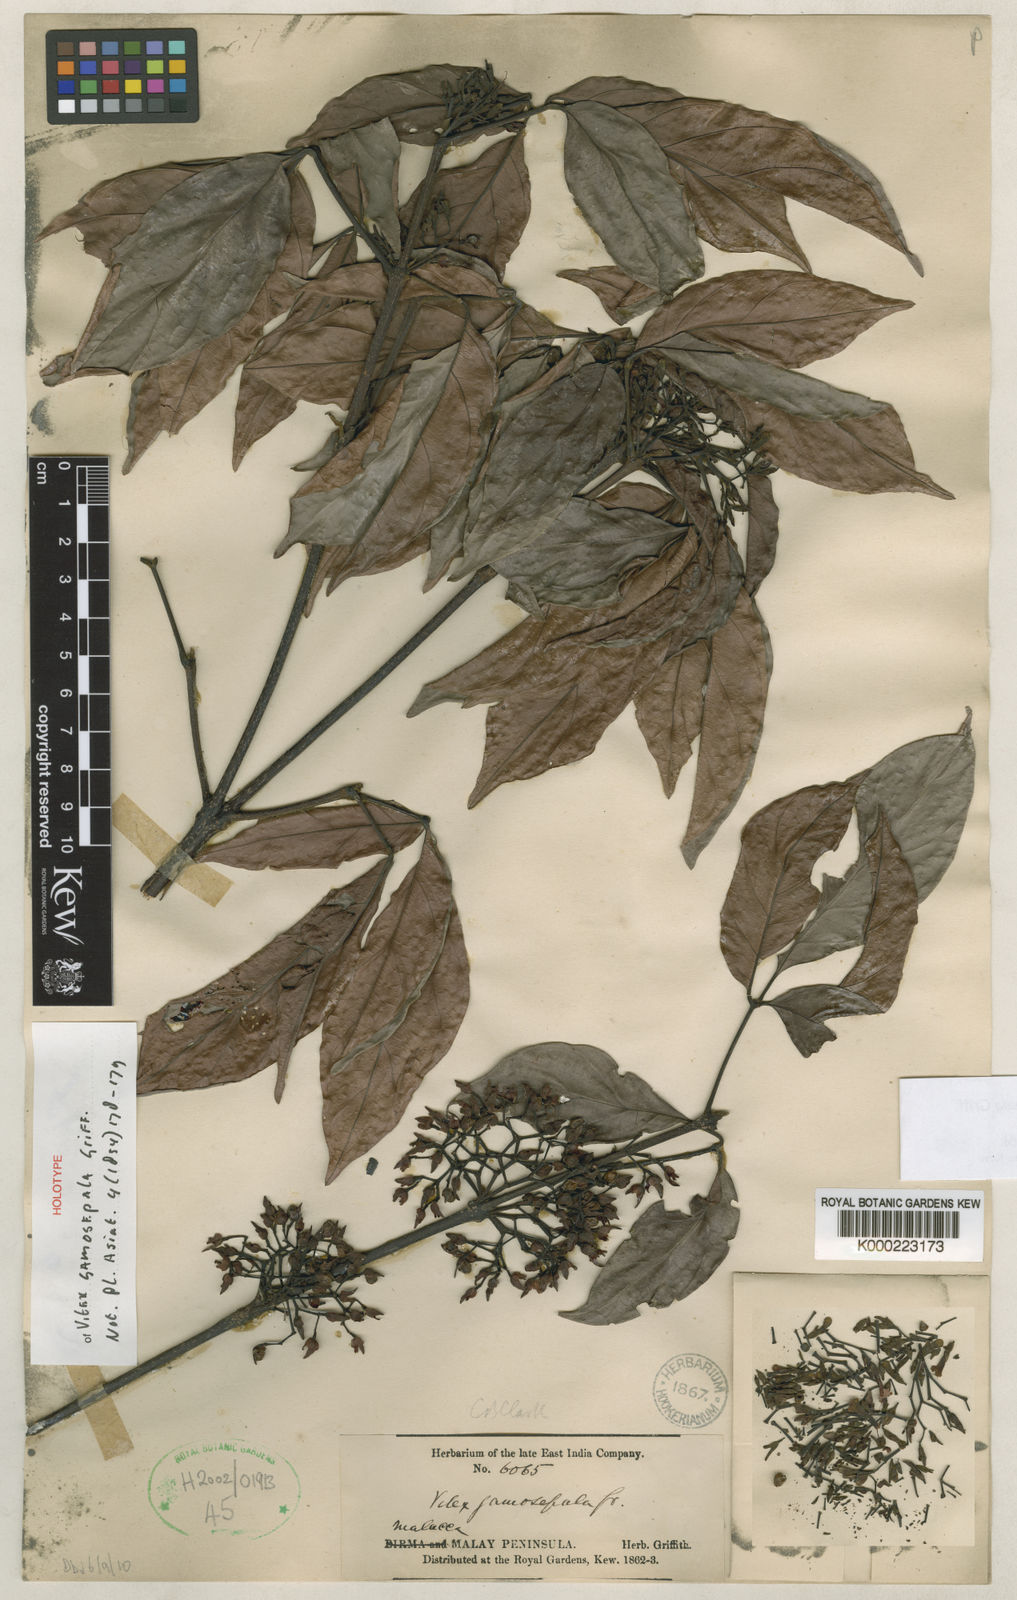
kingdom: Plantae
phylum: Tracheophyta
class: Magnoliopsida
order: Lamiales
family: Lamiaceae
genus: Vitex
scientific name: Vitex gamosepala
